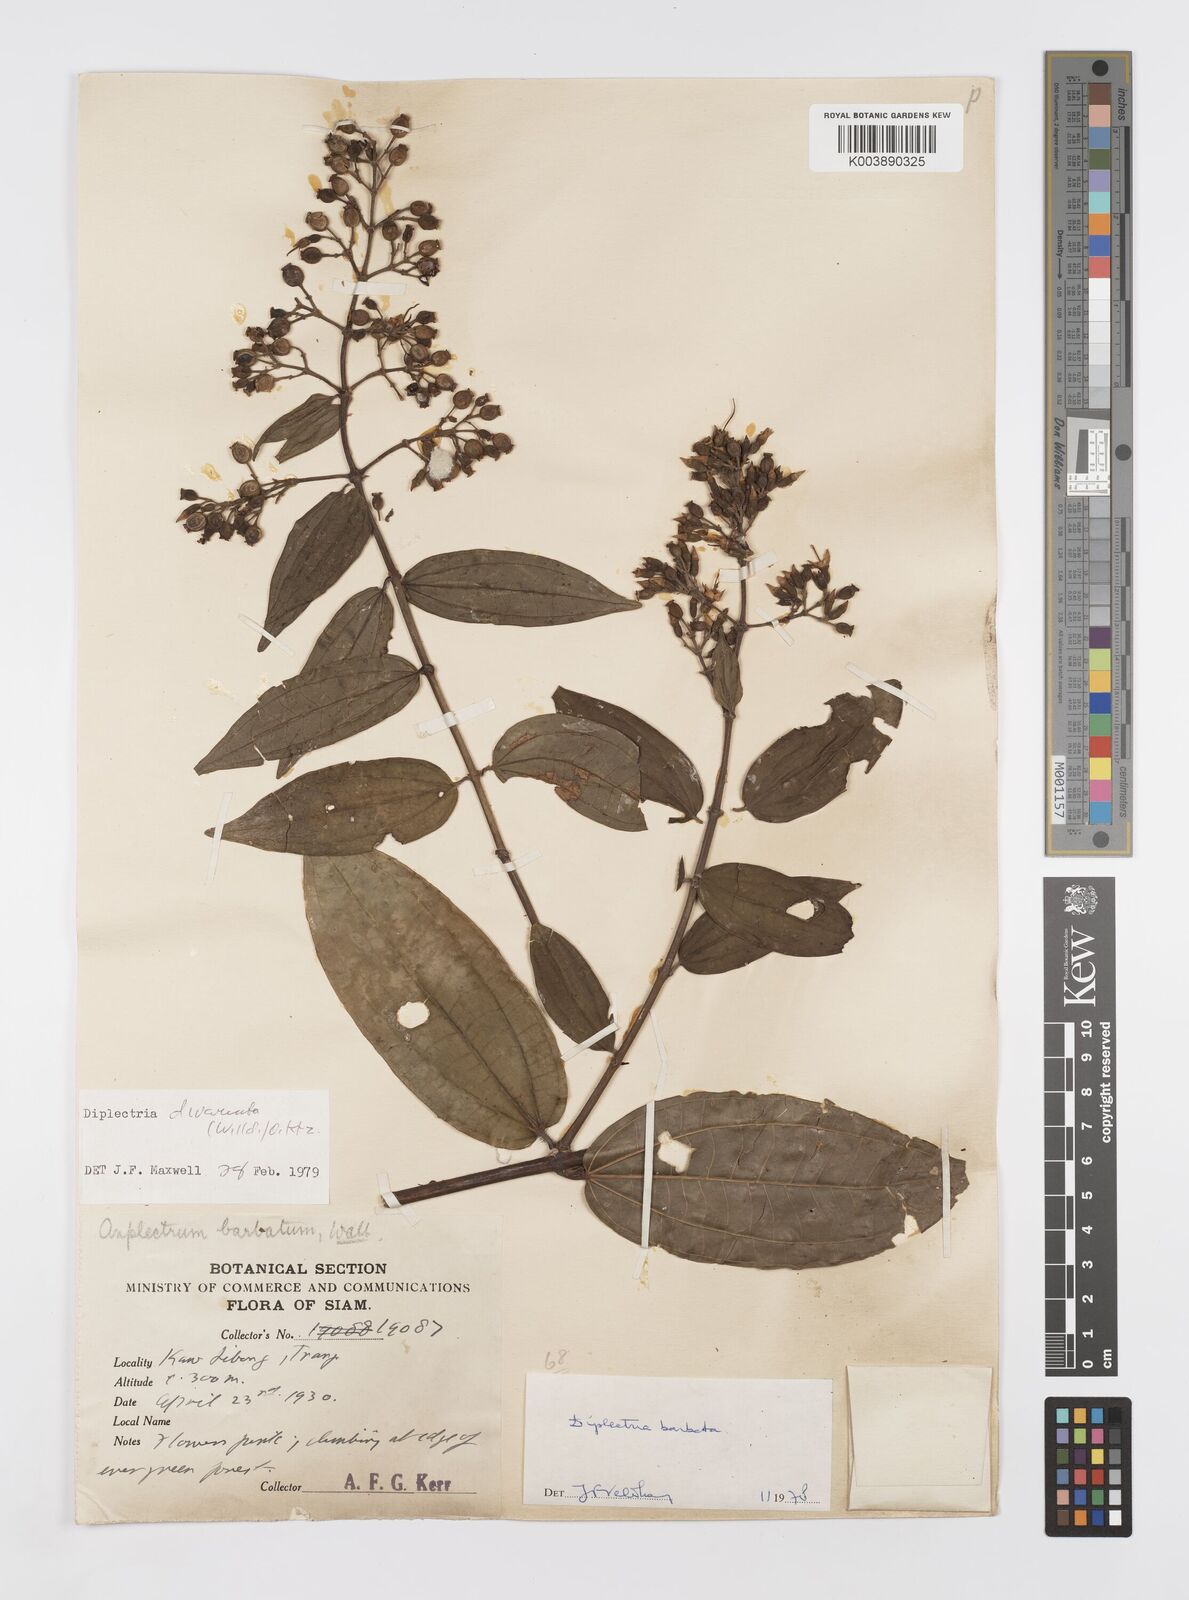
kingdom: Plantae
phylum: Tracheophyta
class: Magnoliopsida
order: Myrtales
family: Melastomataceae
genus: Diplectria
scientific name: Diplectria divaricata
